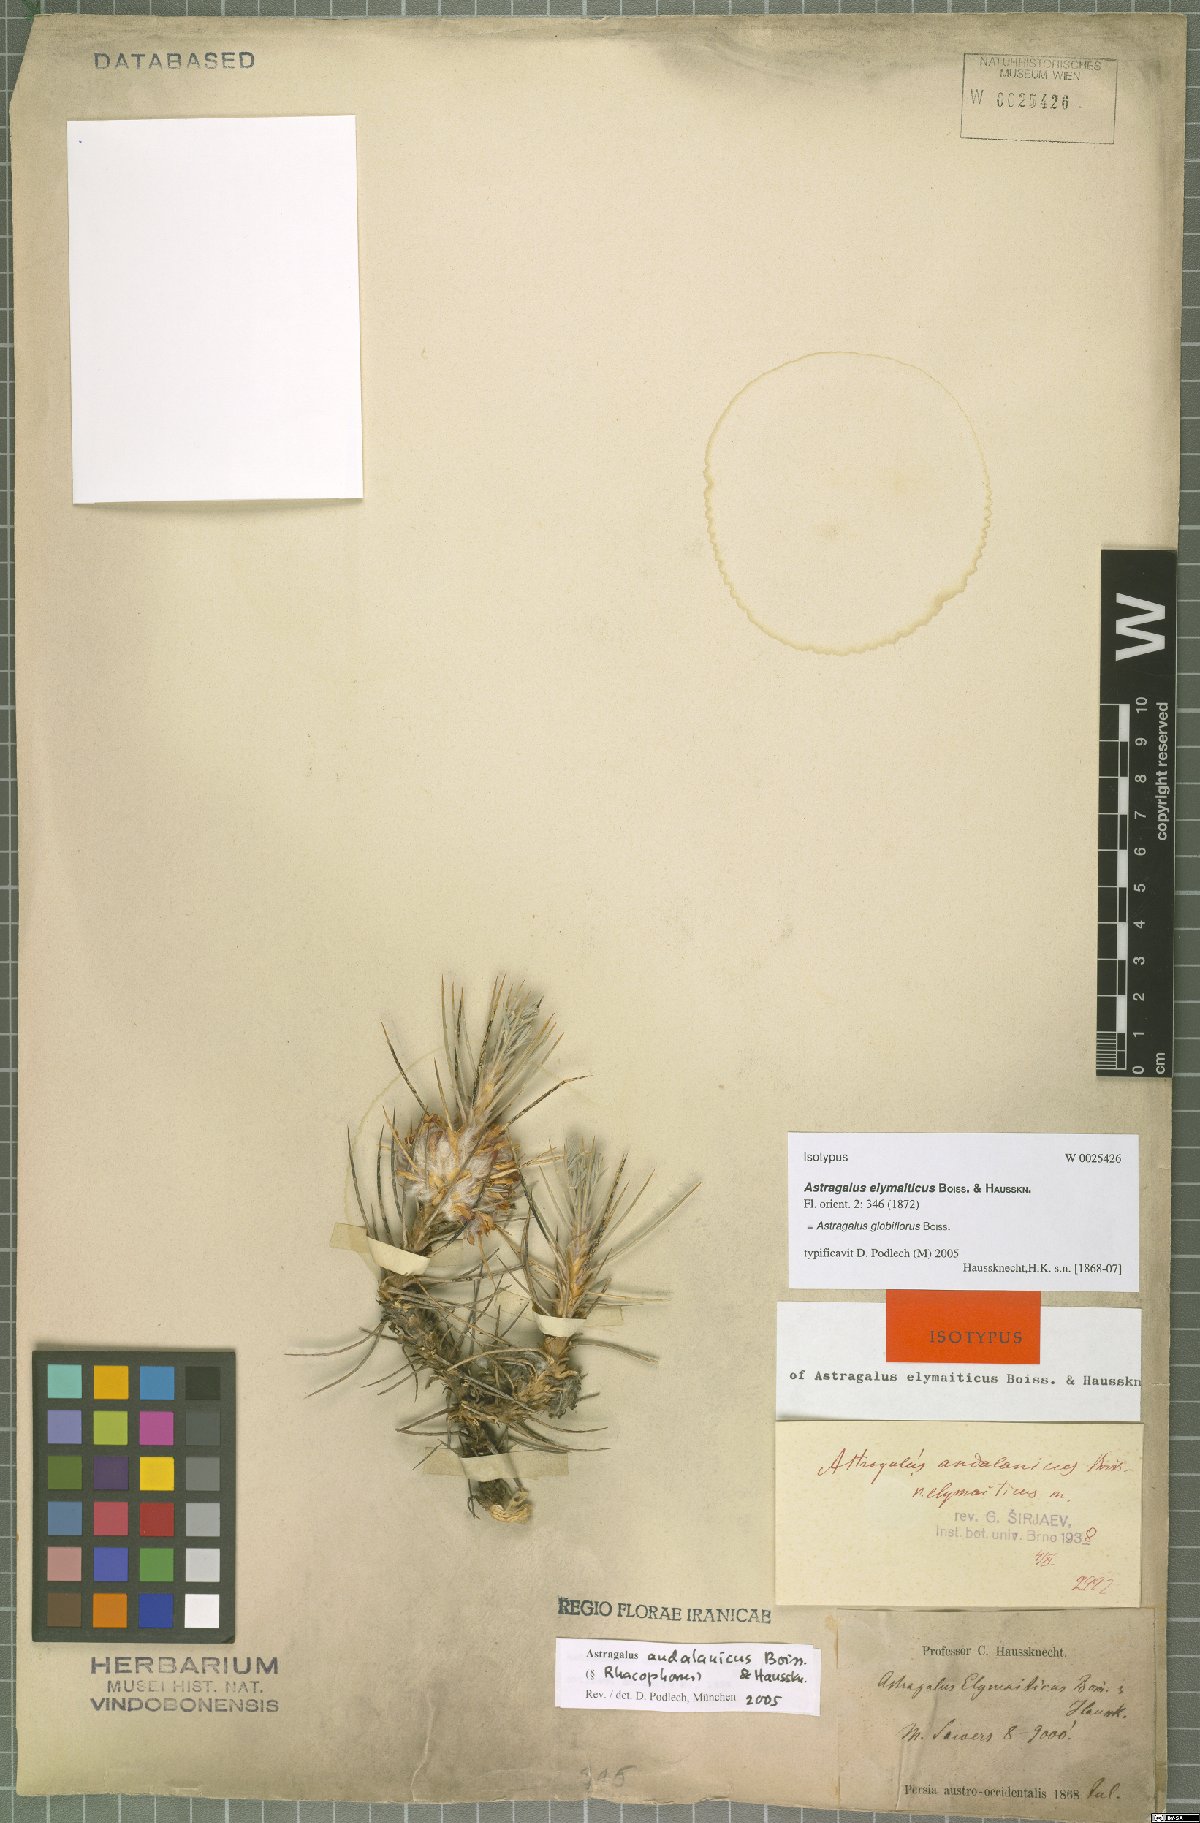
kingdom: Plantae
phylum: Tracheophyta
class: Magnoliopsida
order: Fabales
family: Fabaceae
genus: Astragalus
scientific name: Astragalus globiflorus
